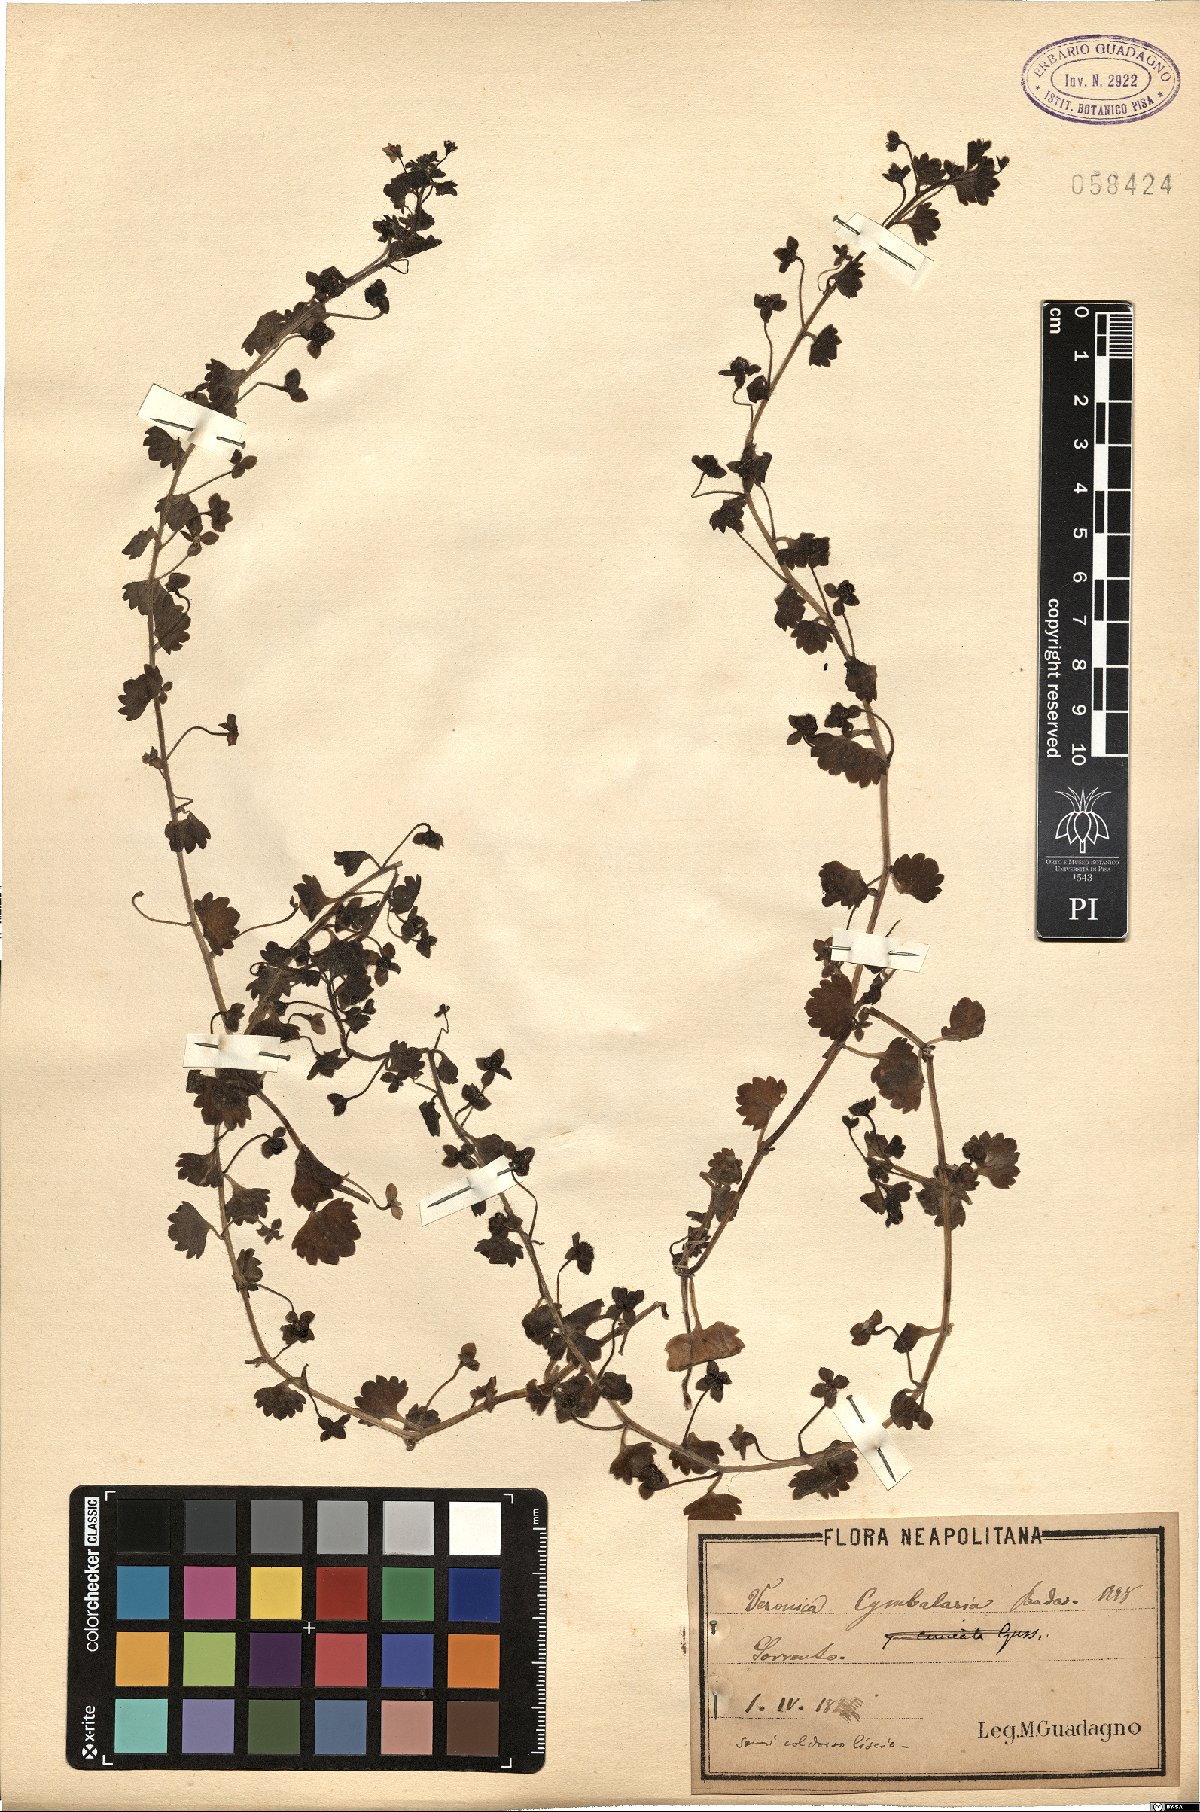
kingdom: Plantae
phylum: Tracheophyta
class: Magnoliopsida
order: Lamiales
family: Plantaginaceae
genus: Veronica
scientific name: Veronica cymbalaria
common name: Pale speedwell
